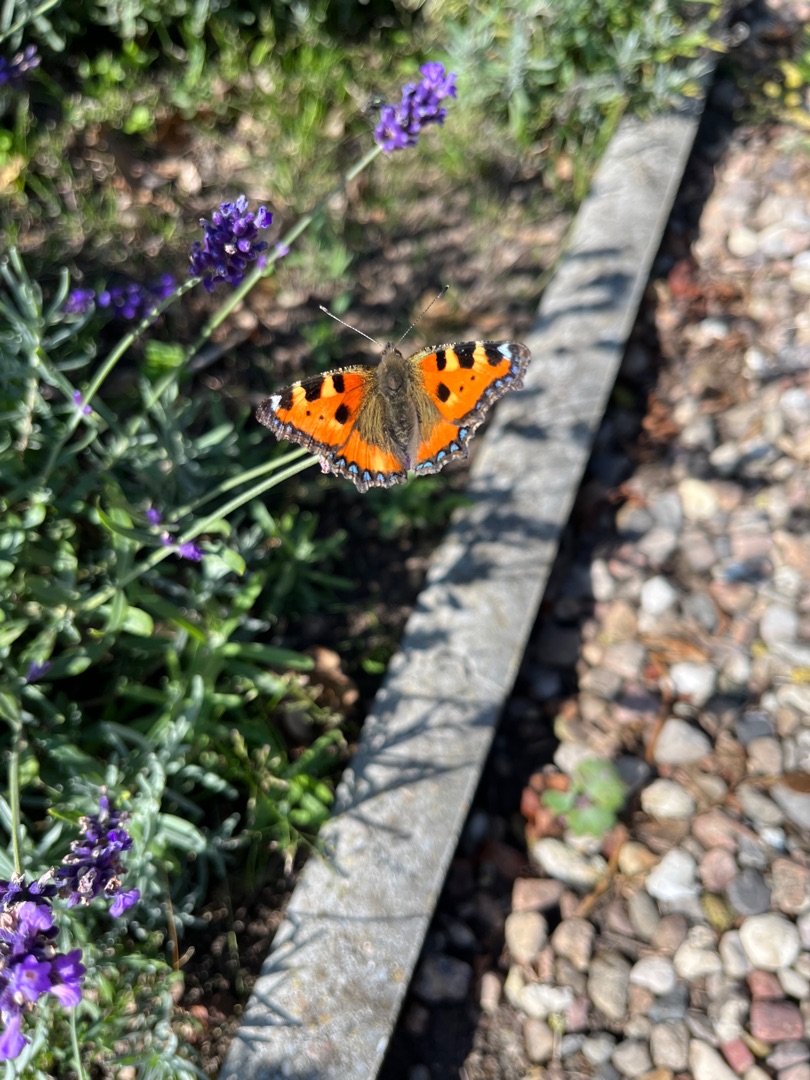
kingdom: Animalia
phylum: Arthropoda
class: Insecta
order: Lepidoptera
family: Nymphalidae
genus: Aglais
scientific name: Aglais urticae
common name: Nældens takvinge
